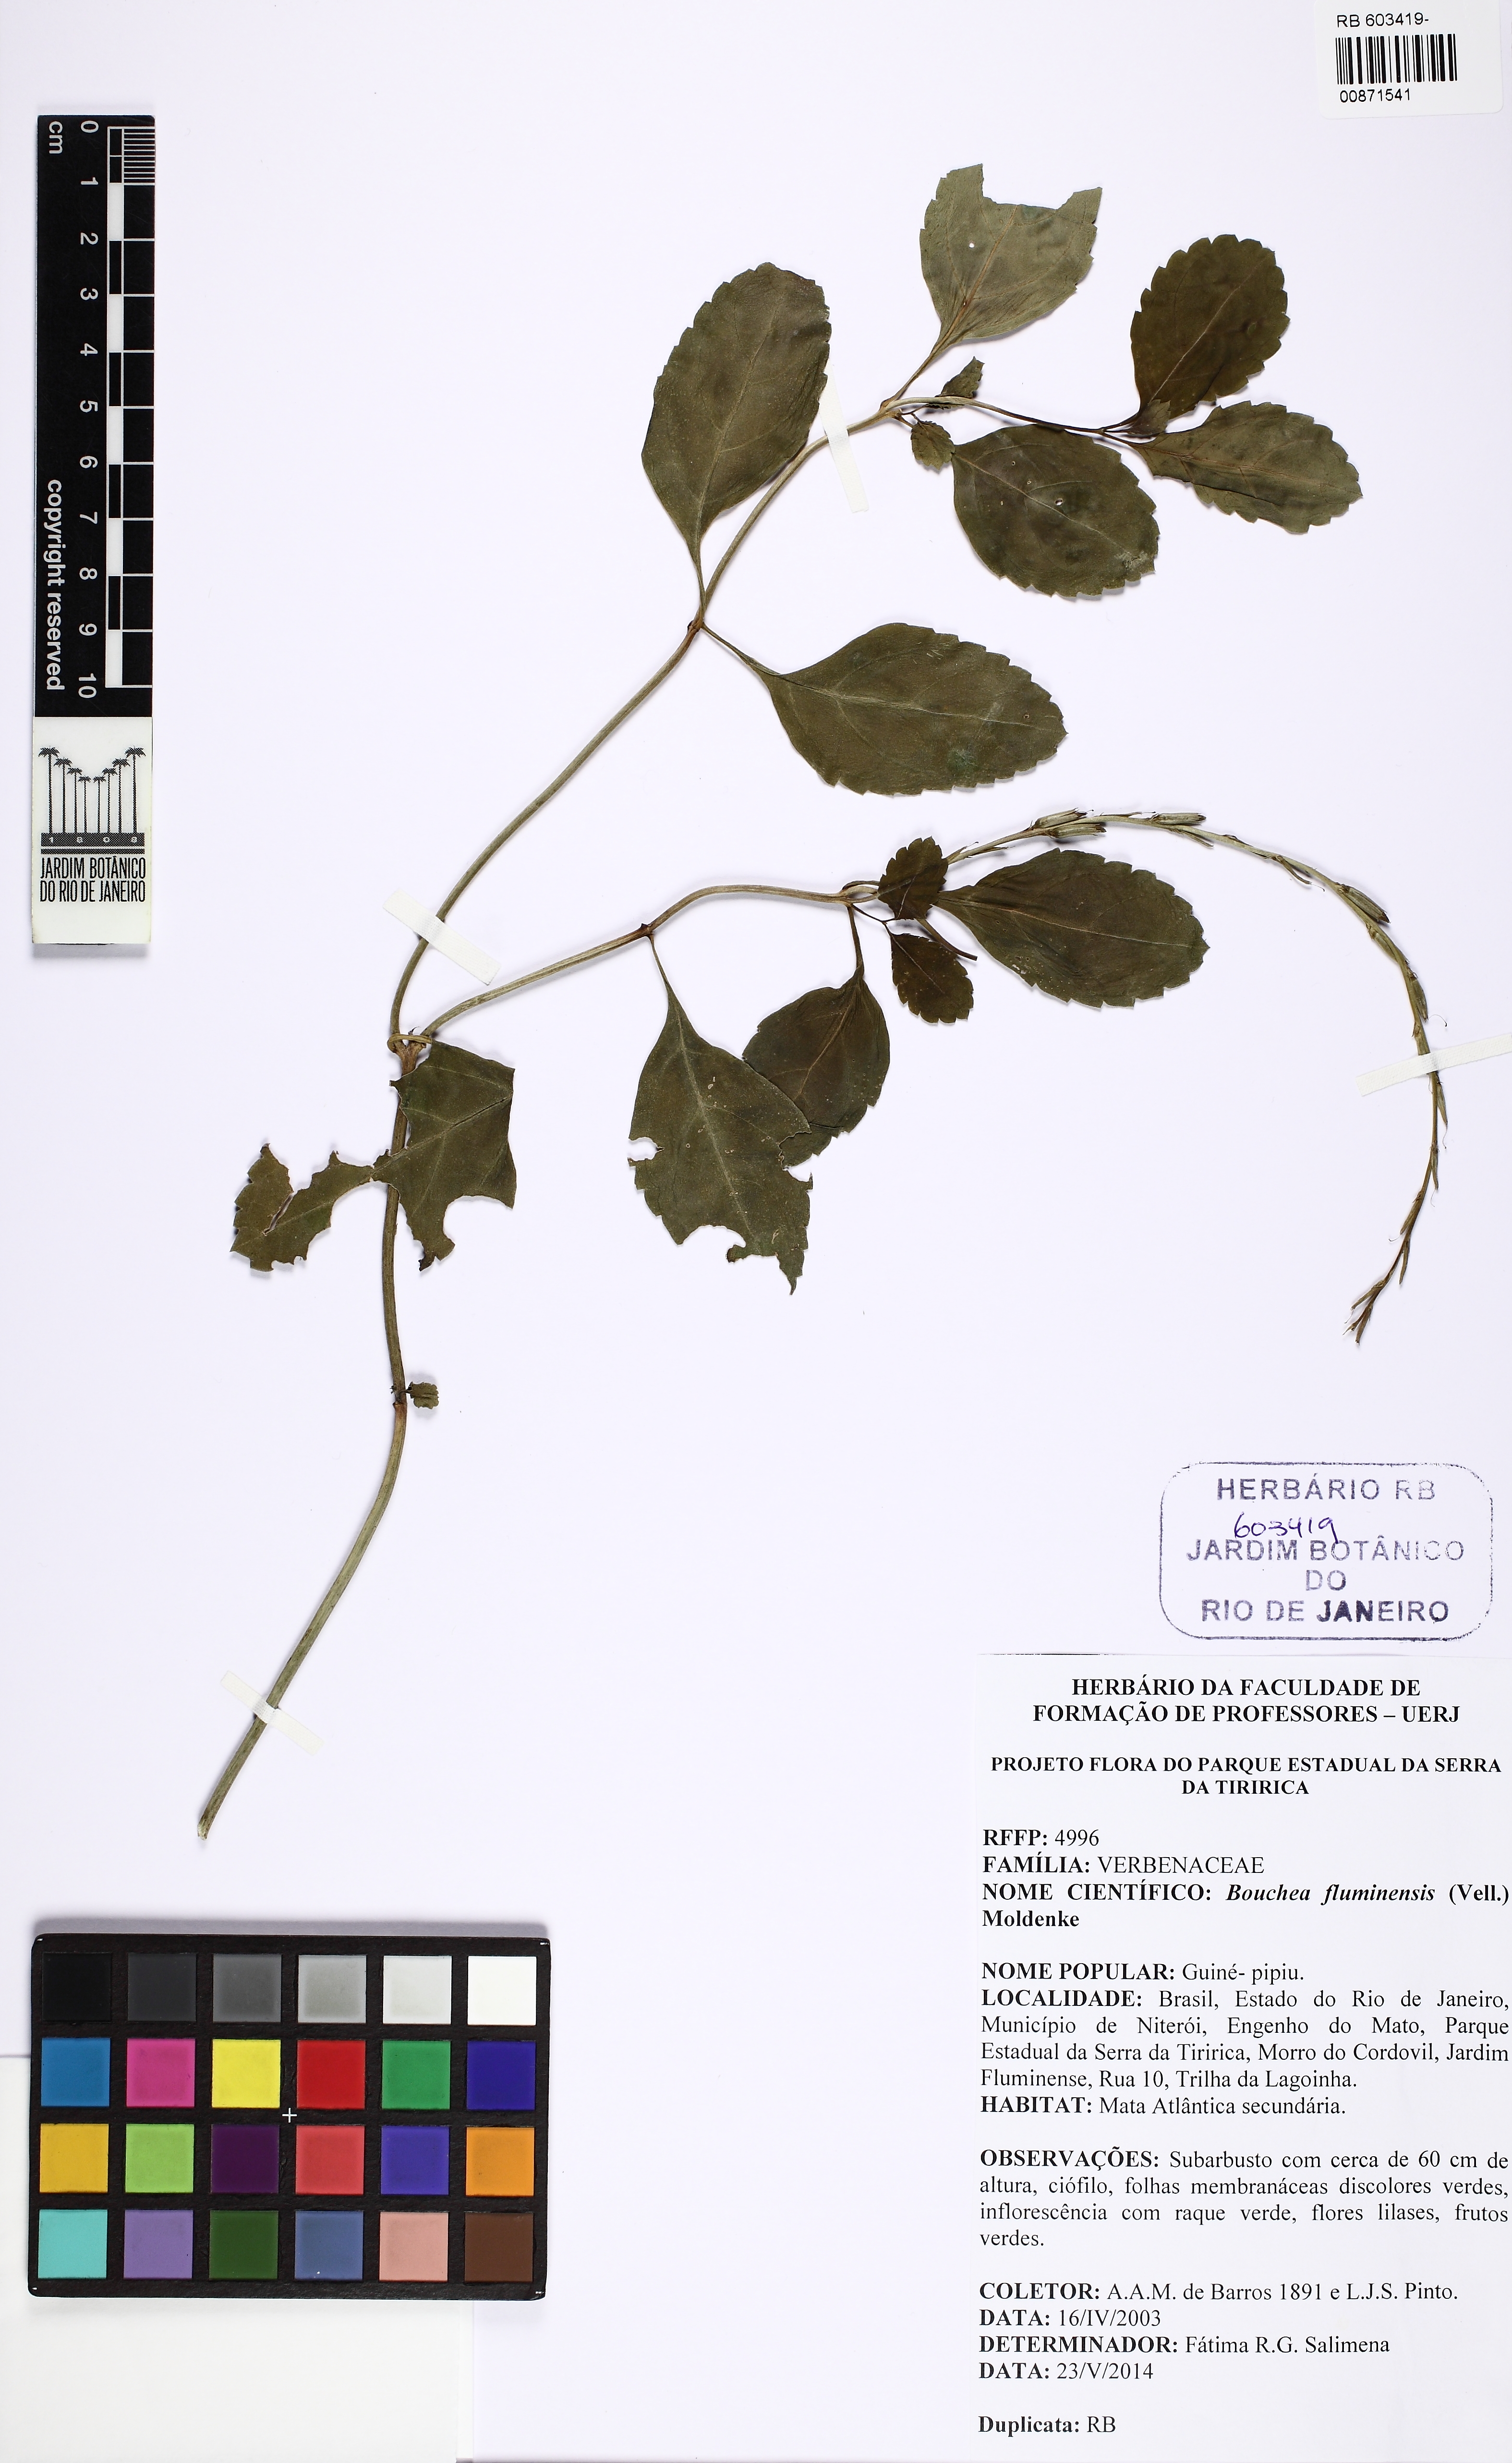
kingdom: Plantae
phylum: Tracheophyta
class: Magnoliopsida
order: Lamiales
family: Verbenaceae
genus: Bouchea
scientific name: Bouchea pseudogervao
